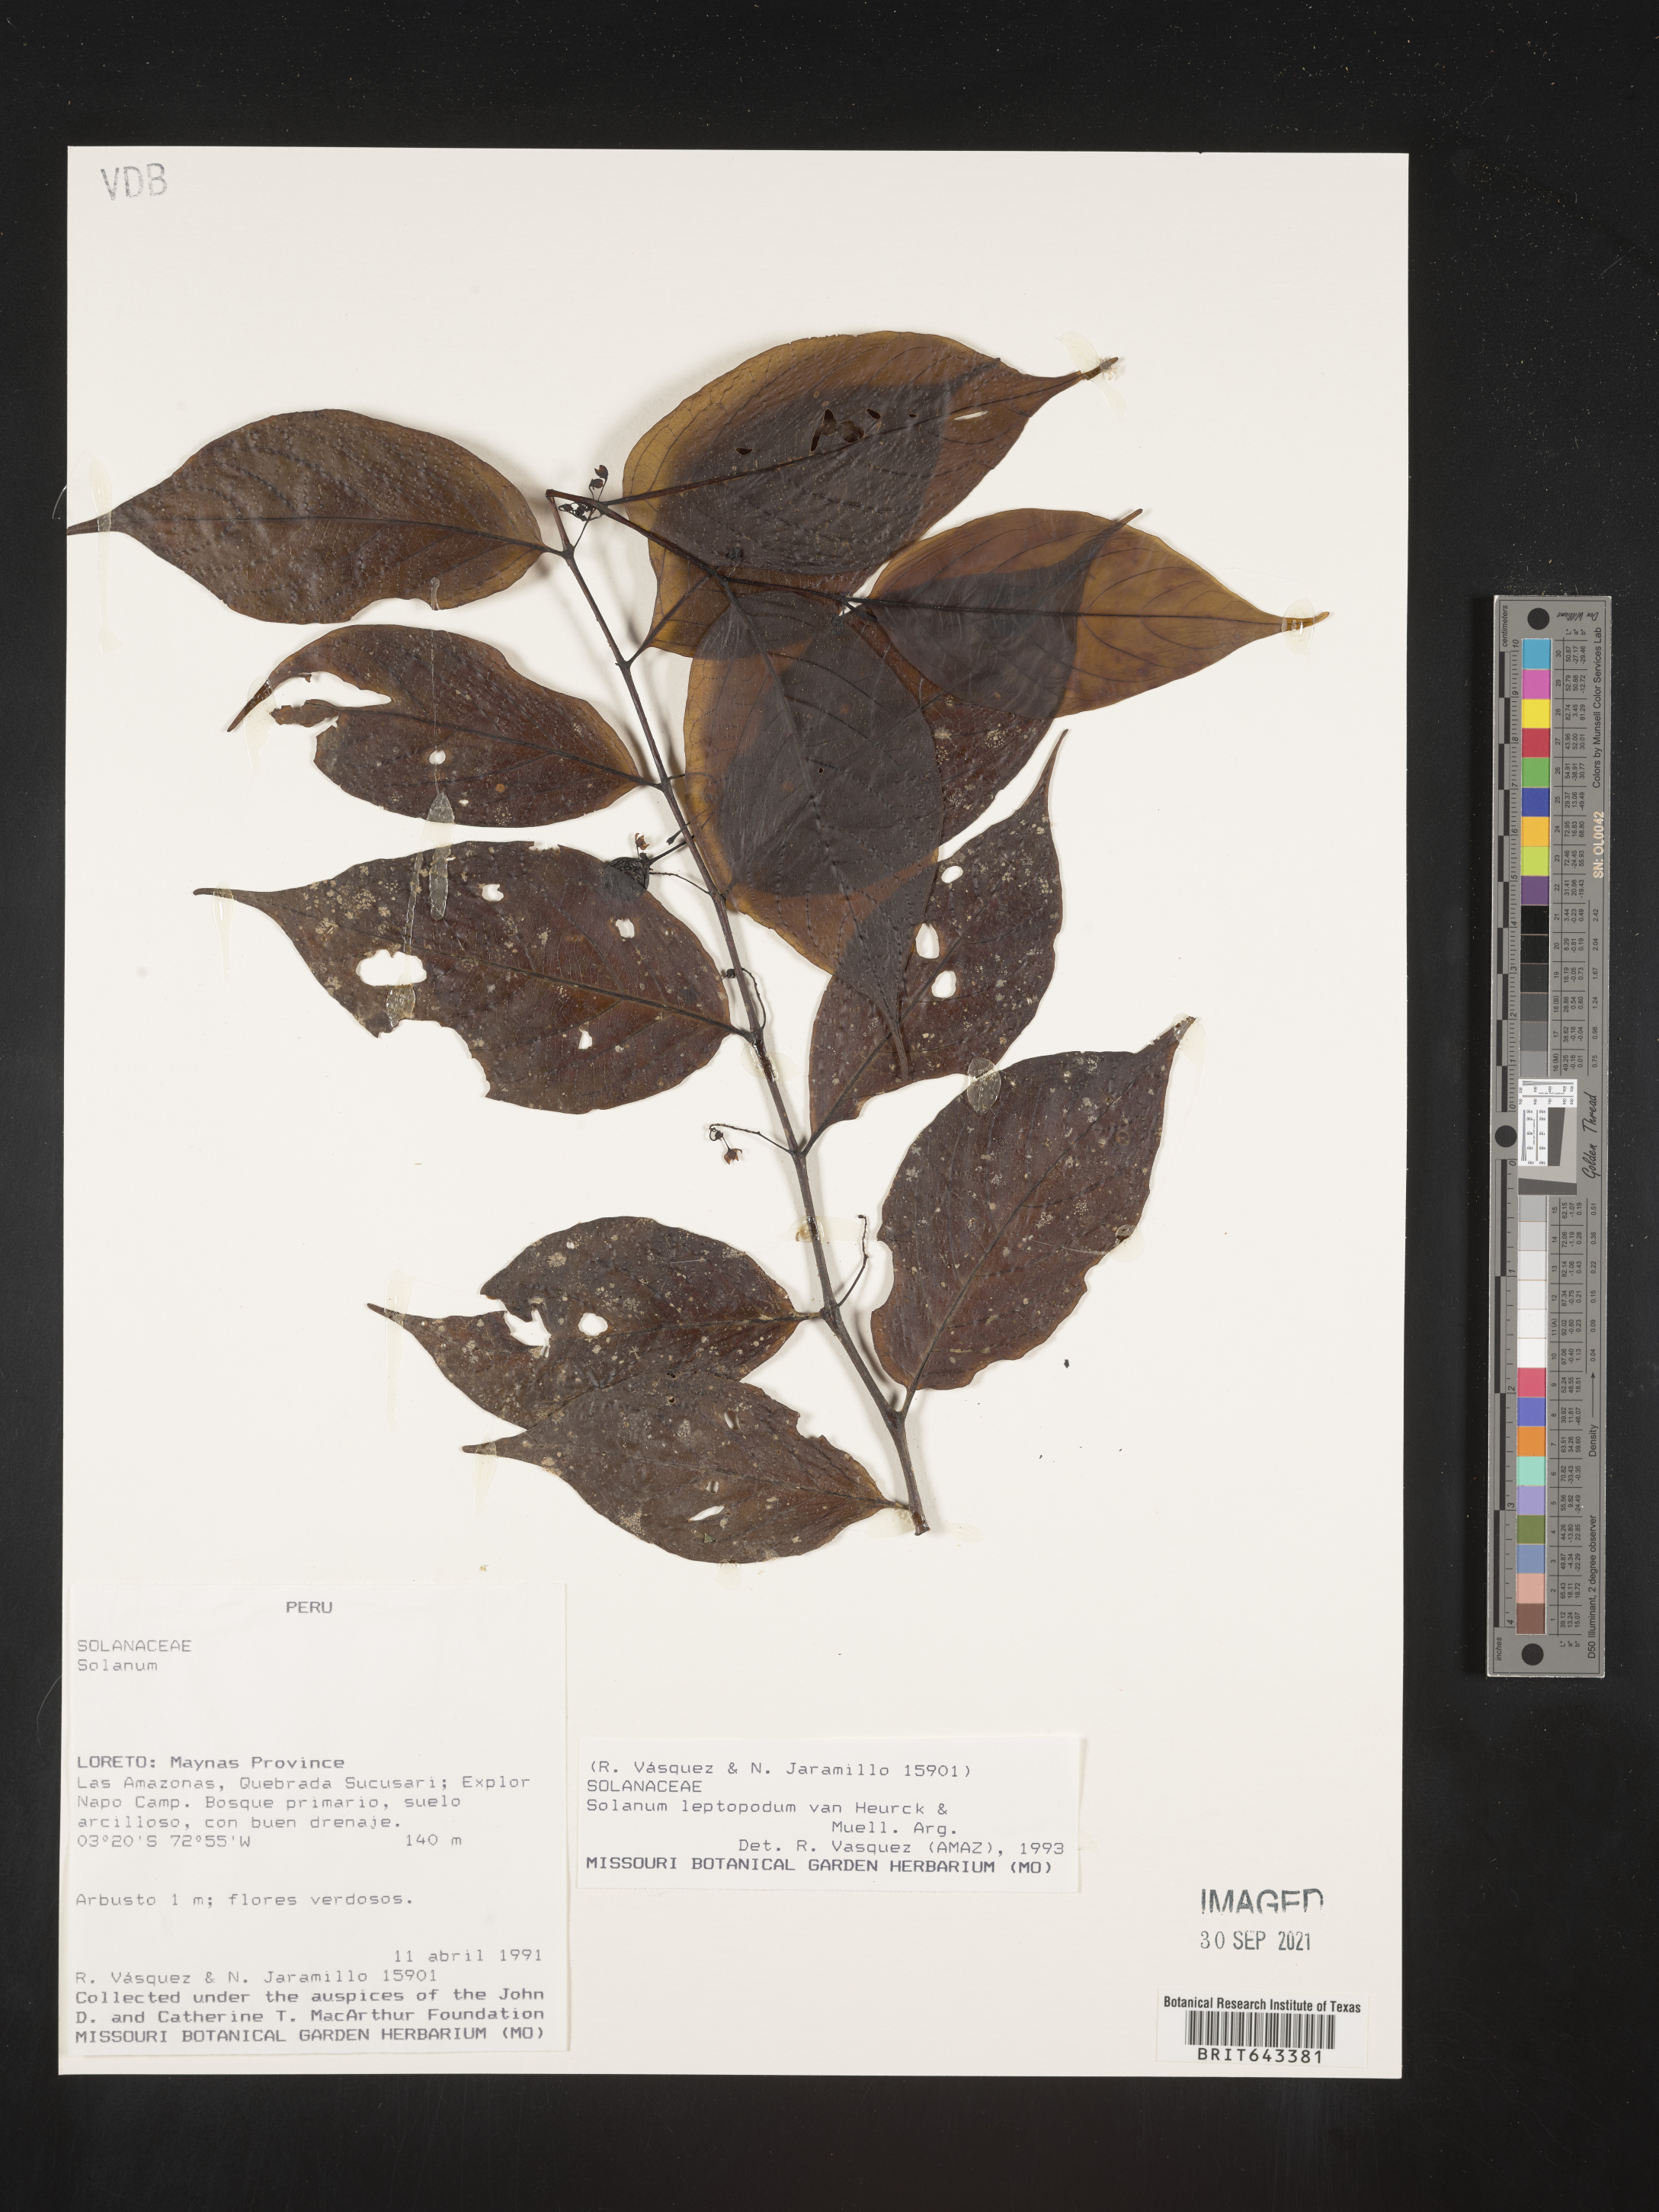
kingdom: Plantae
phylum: Tracheophyta
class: Magnoliopsida
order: Solanales
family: Solanaceae
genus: Solanum
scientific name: Solanum
